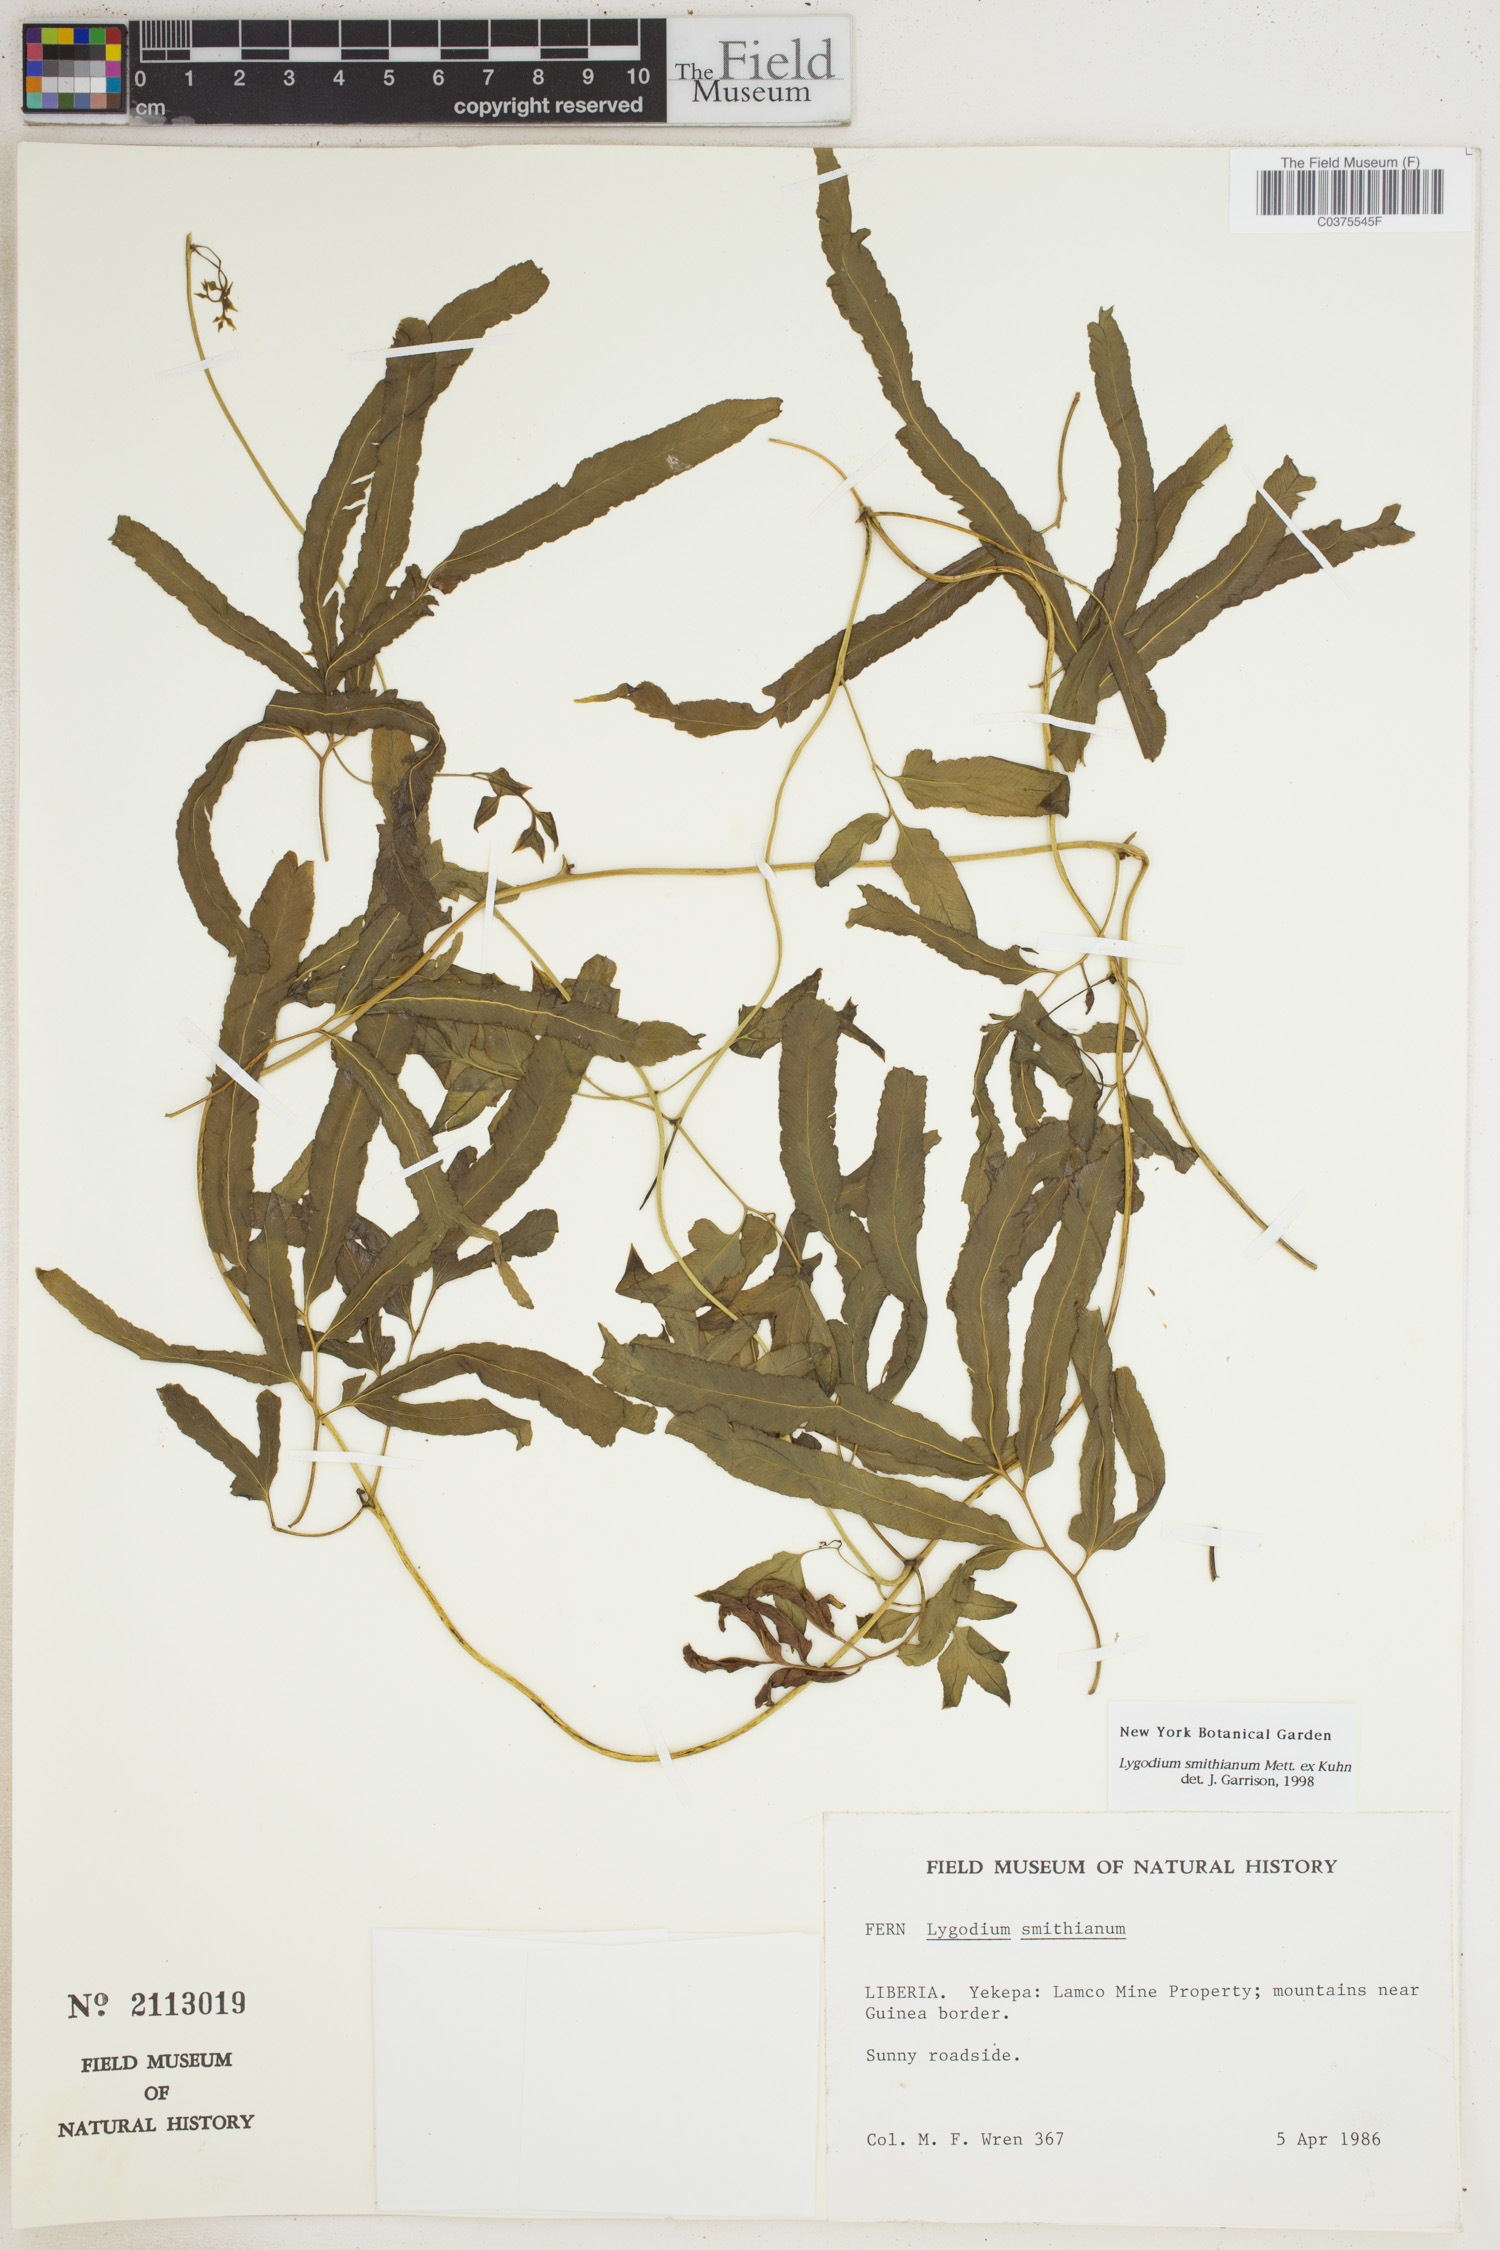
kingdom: Plantae
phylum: Tracheophyta
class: Polypodiopsida
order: Schizaeales
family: Lygodiaceae
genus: Lygodium
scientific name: Lygodium smithianum
